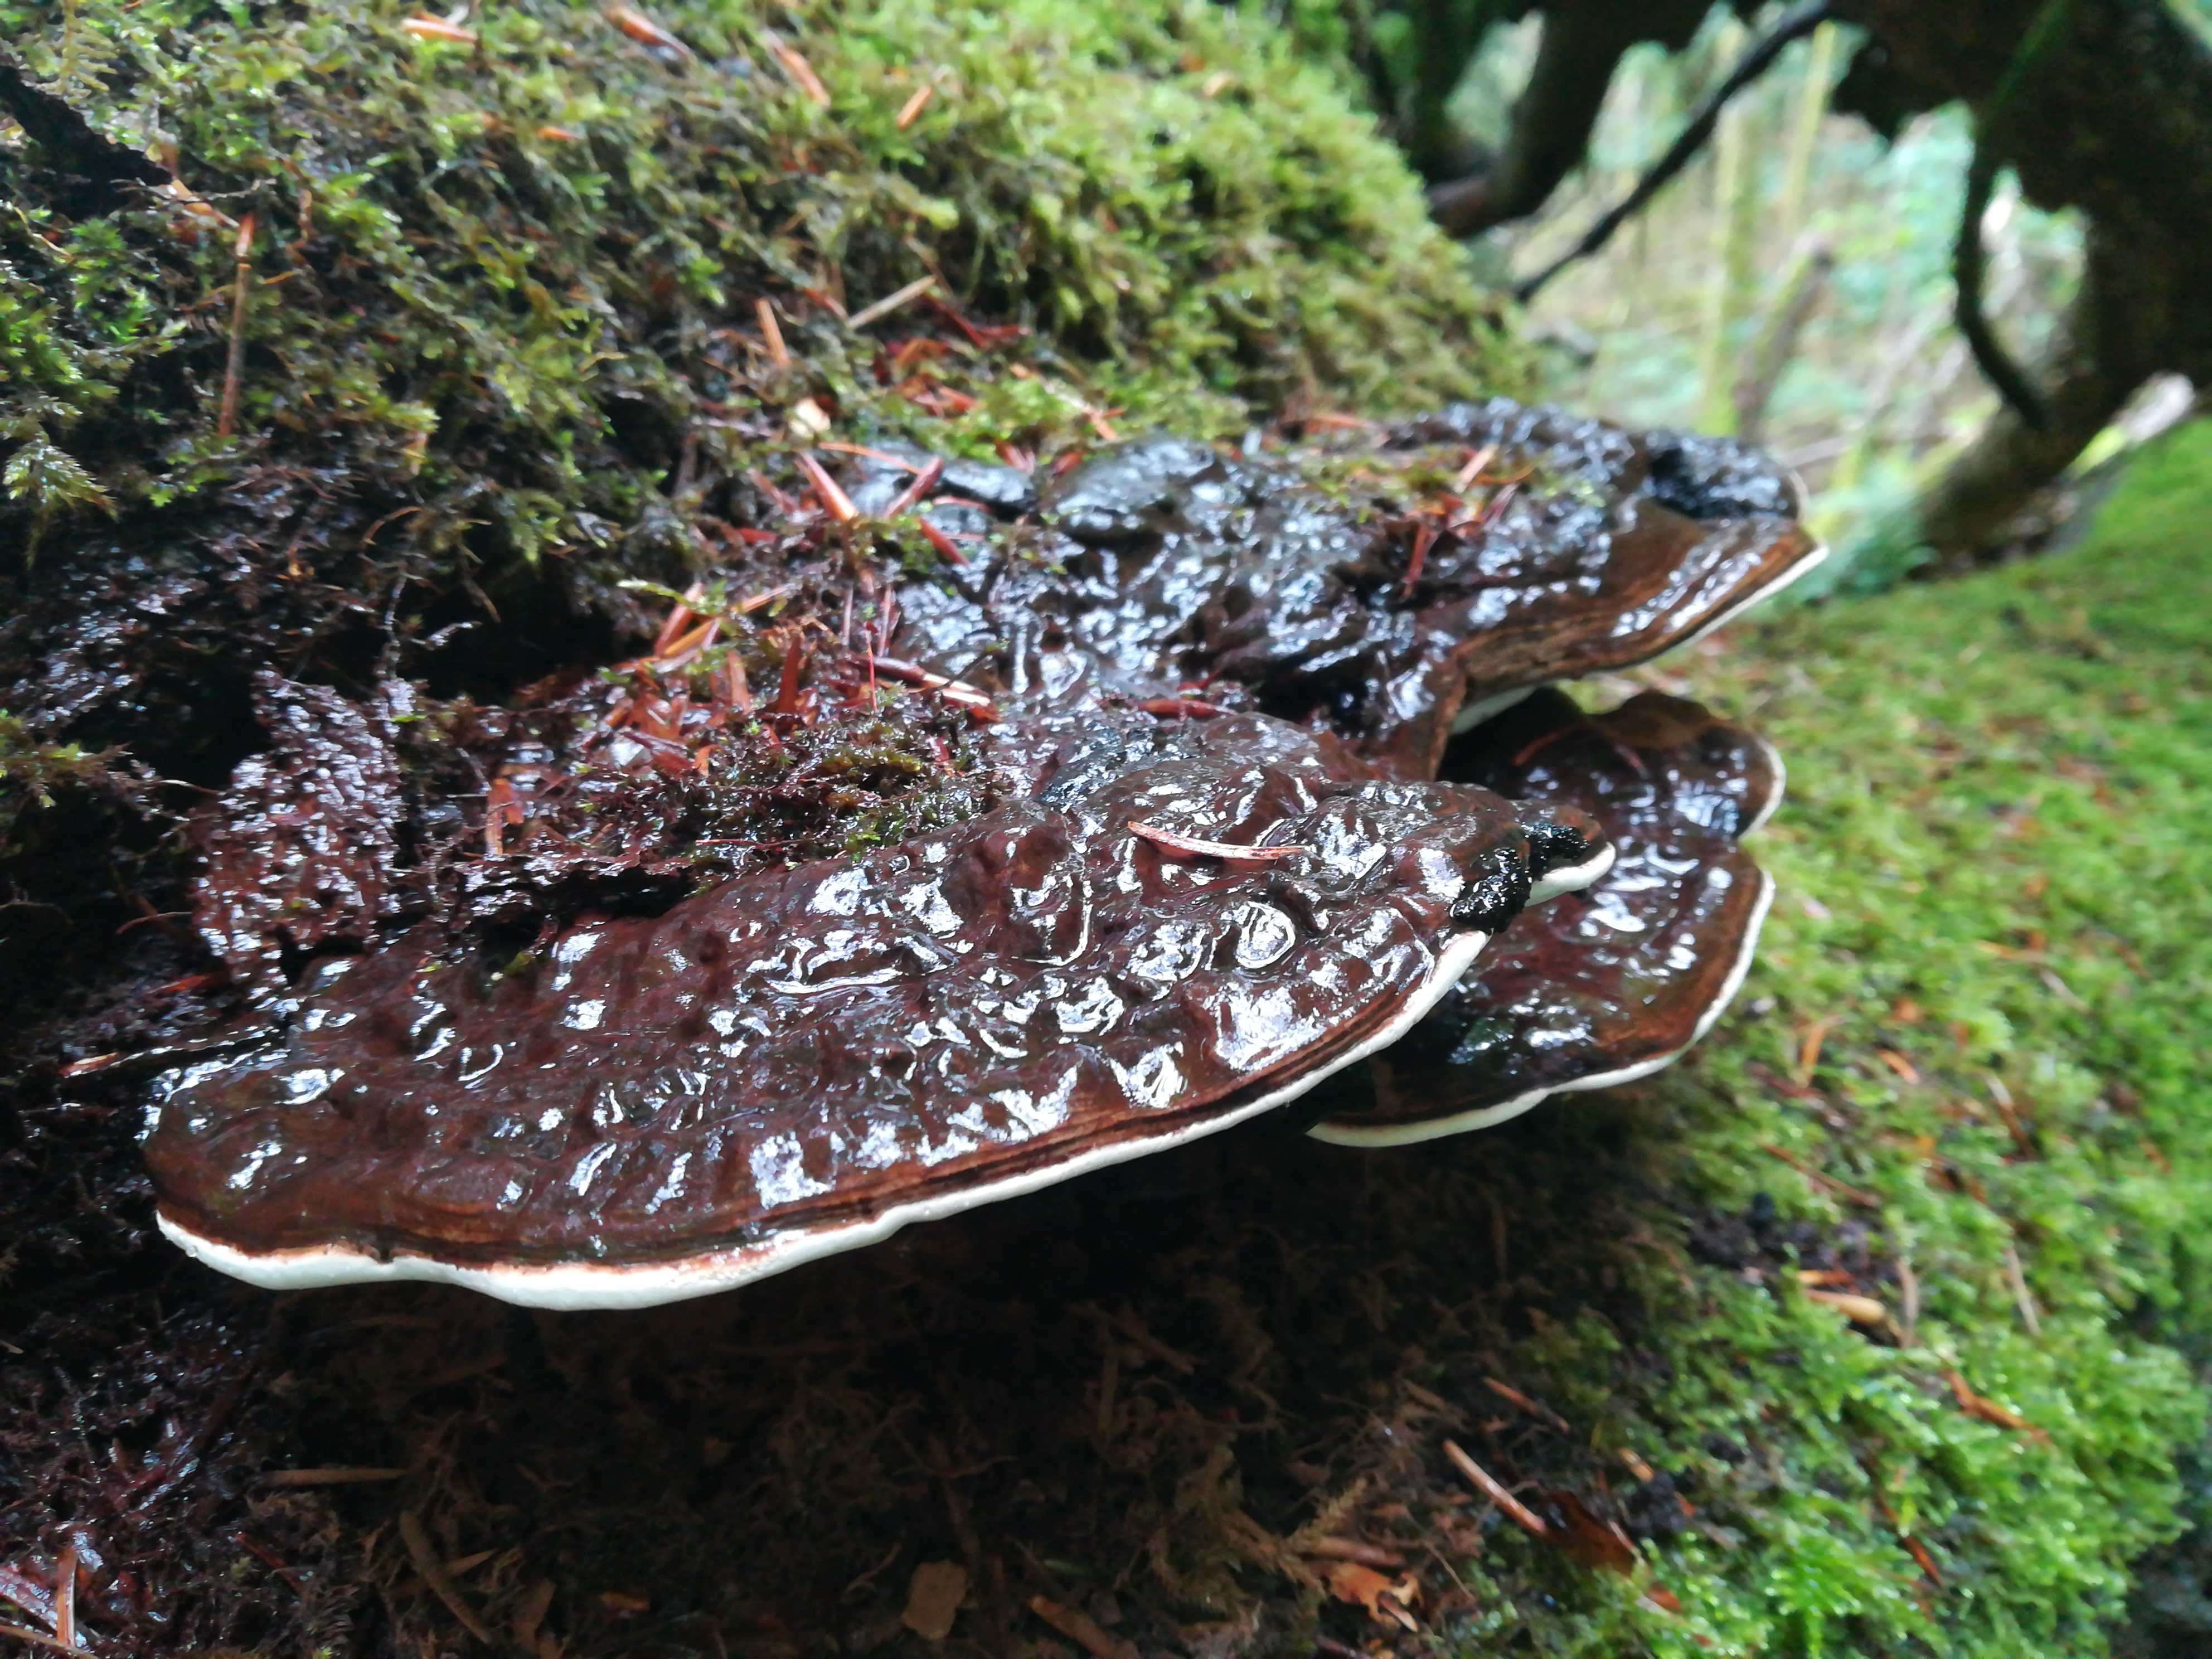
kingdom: Fungi
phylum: Basidiomycota
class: Agaricomycetes
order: Polyporales
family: Polyporaceae
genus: Ganoderma
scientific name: Ganoderma applanatum
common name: flad lakporesvamp
